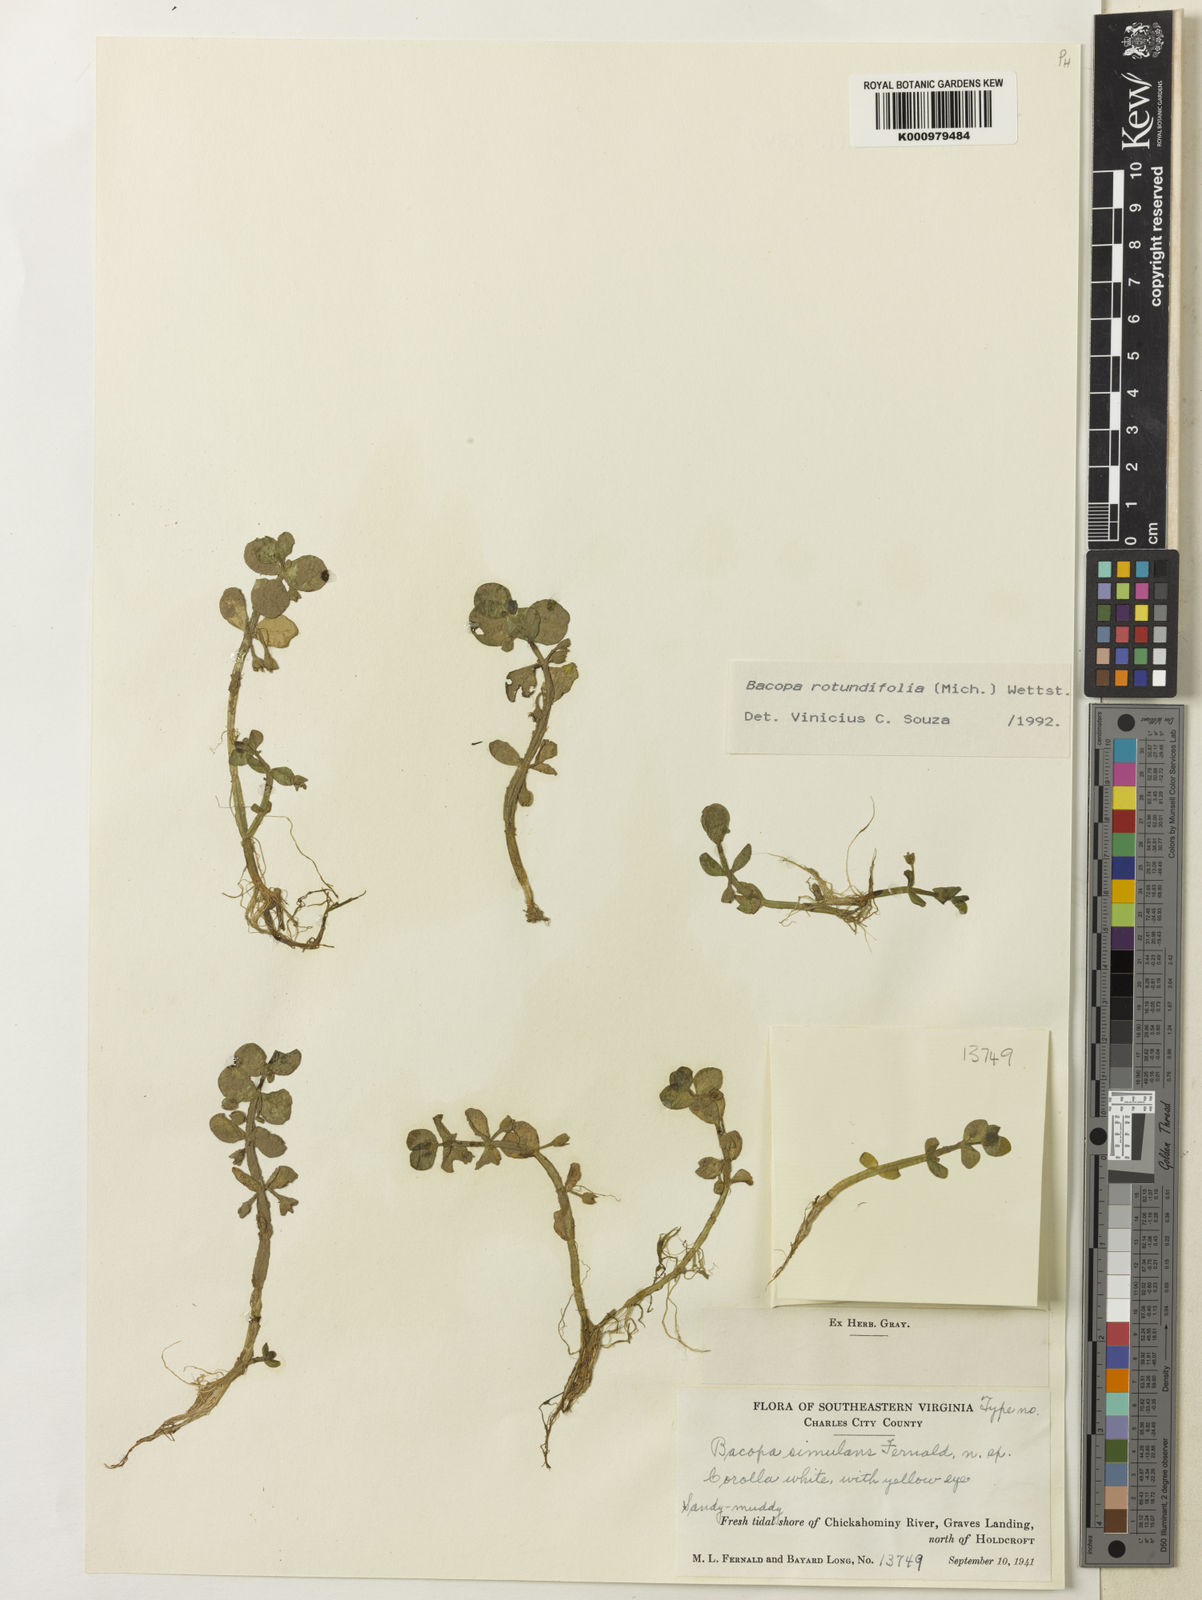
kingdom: Plantae
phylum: Tracheophyta
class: Magnoliopsida
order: Lamiales
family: Plantaginaceae
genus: Bacopa
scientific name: Bacopa rotundifolia
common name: Disc water hyssop
